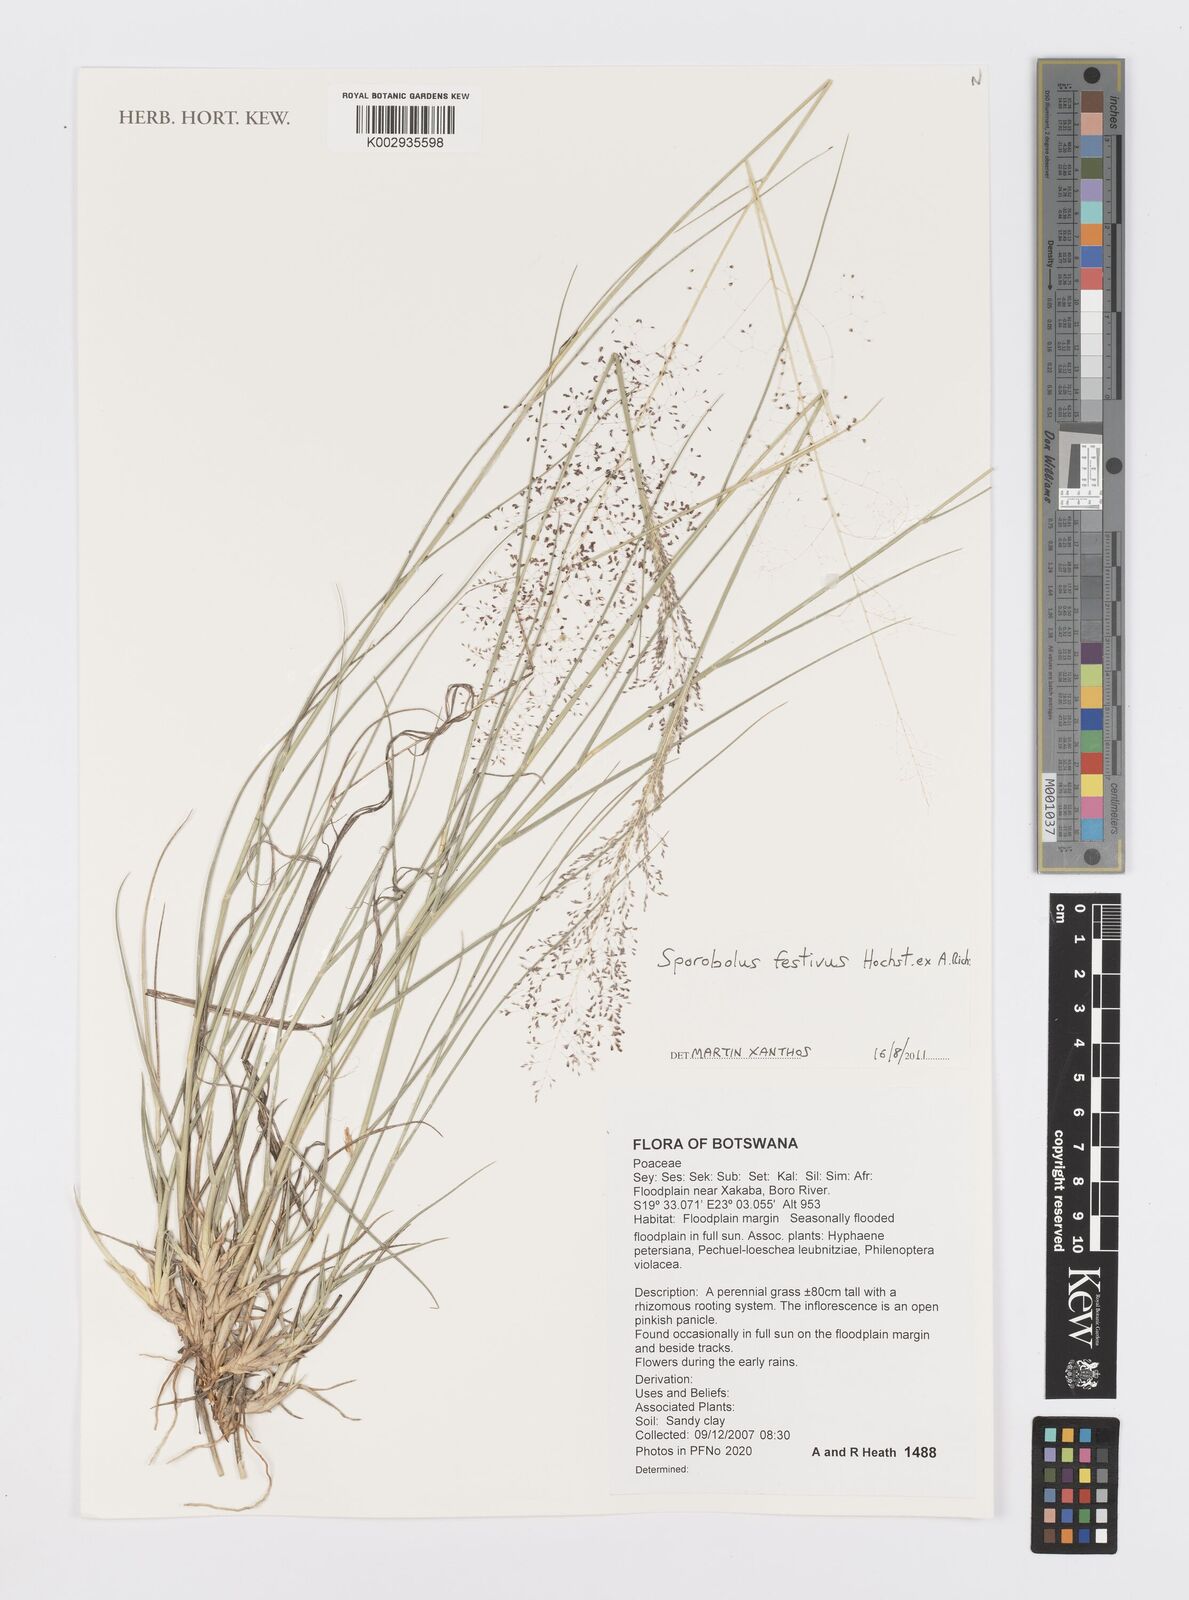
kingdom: Plantae
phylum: Tracheophyta
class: Liliopsida
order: Poales
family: Poaceae
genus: Sporobolus
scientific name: Sporobolus festivus
